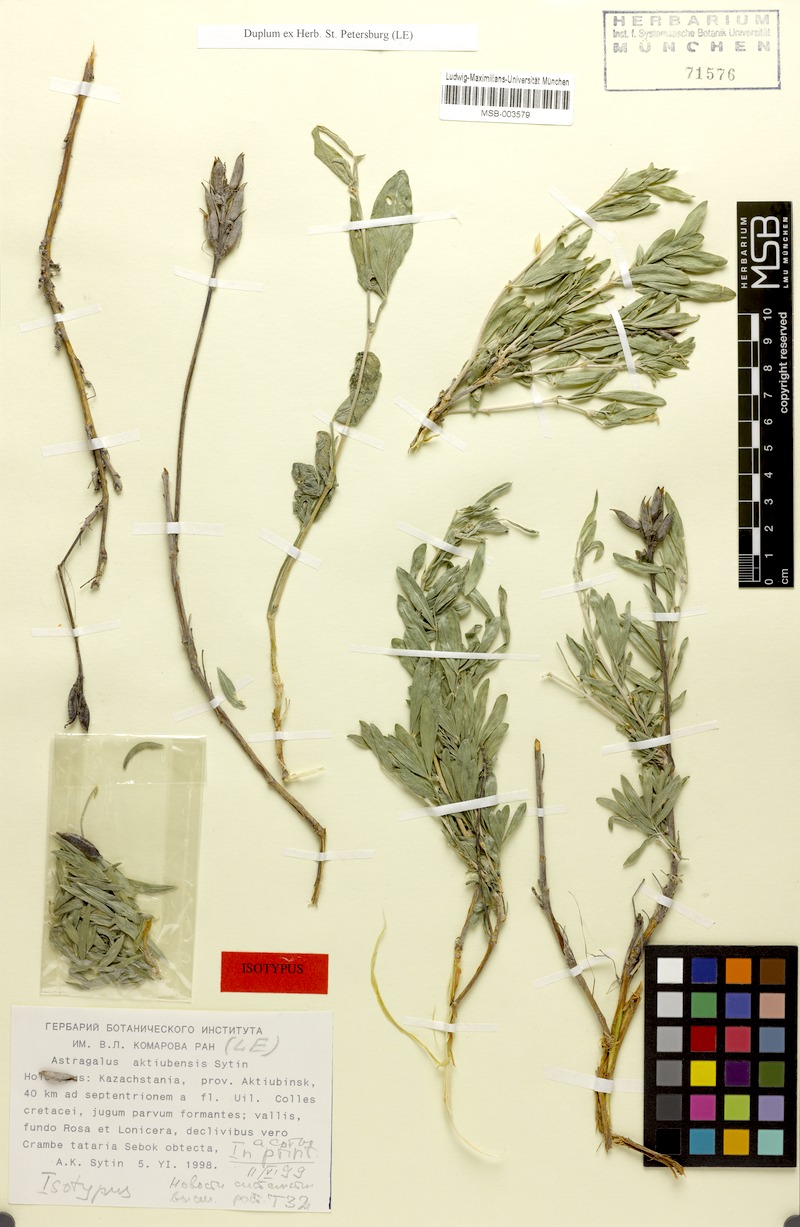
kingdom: Plantae
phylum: Tracheophyta
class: Magnoliopsida
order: Fabales
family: Fabaceae
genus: Astragalus
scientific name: Astragalus aktiubensis
